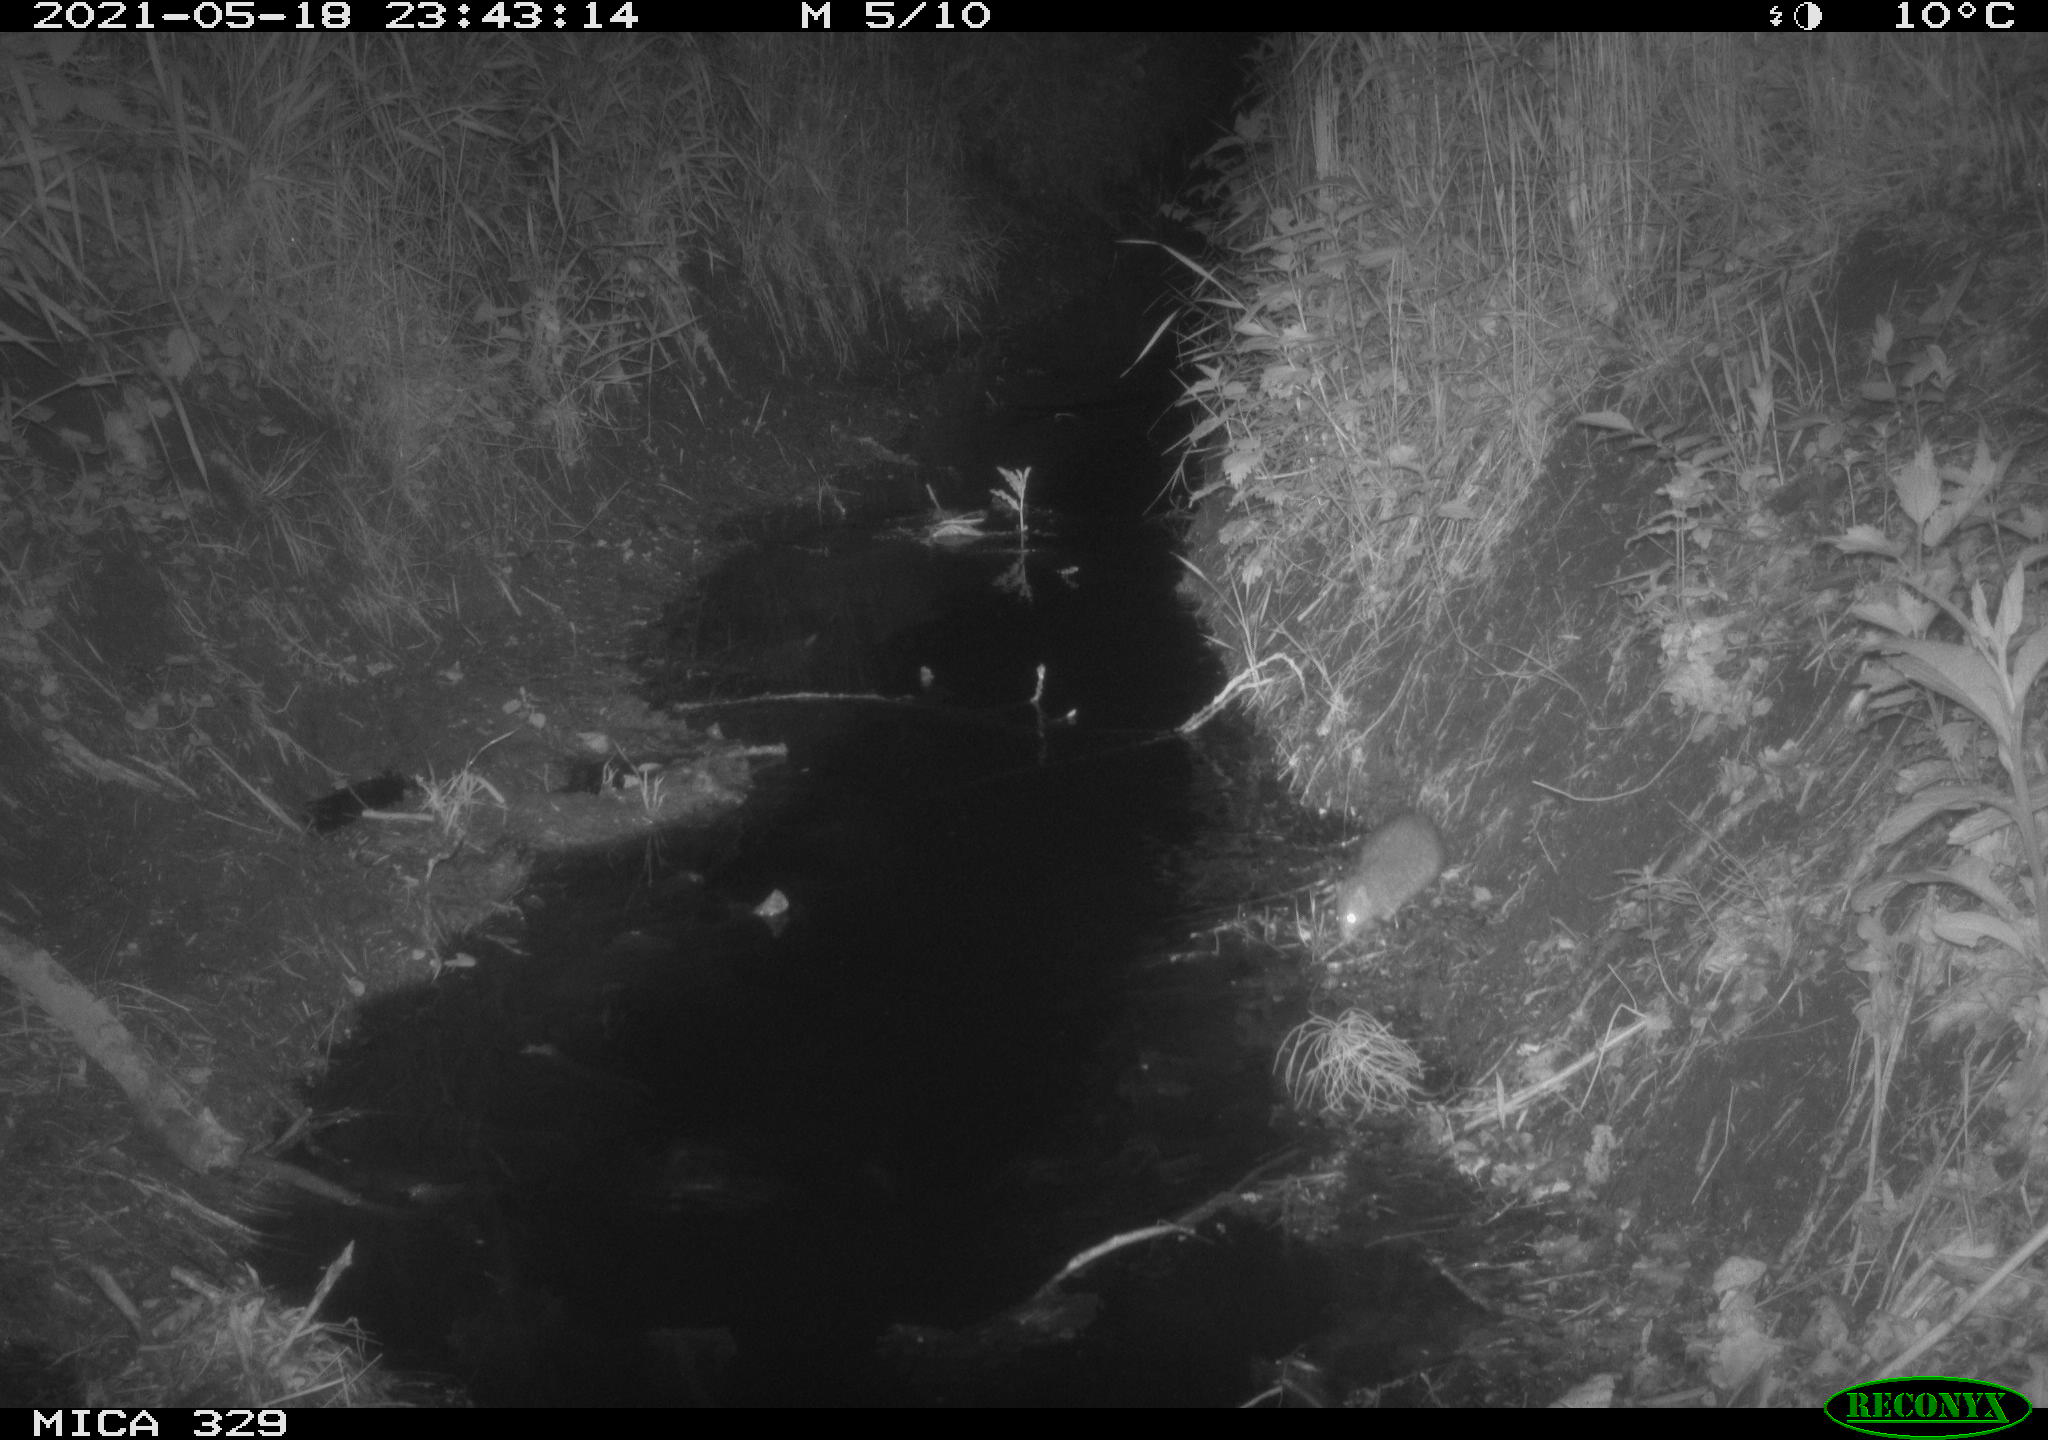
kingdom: Animalia
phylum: Chordata
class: Mammalia
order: Rodentia
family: Muridae
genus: Rattus
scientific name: Rattus norvegicus
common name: Brown rat
